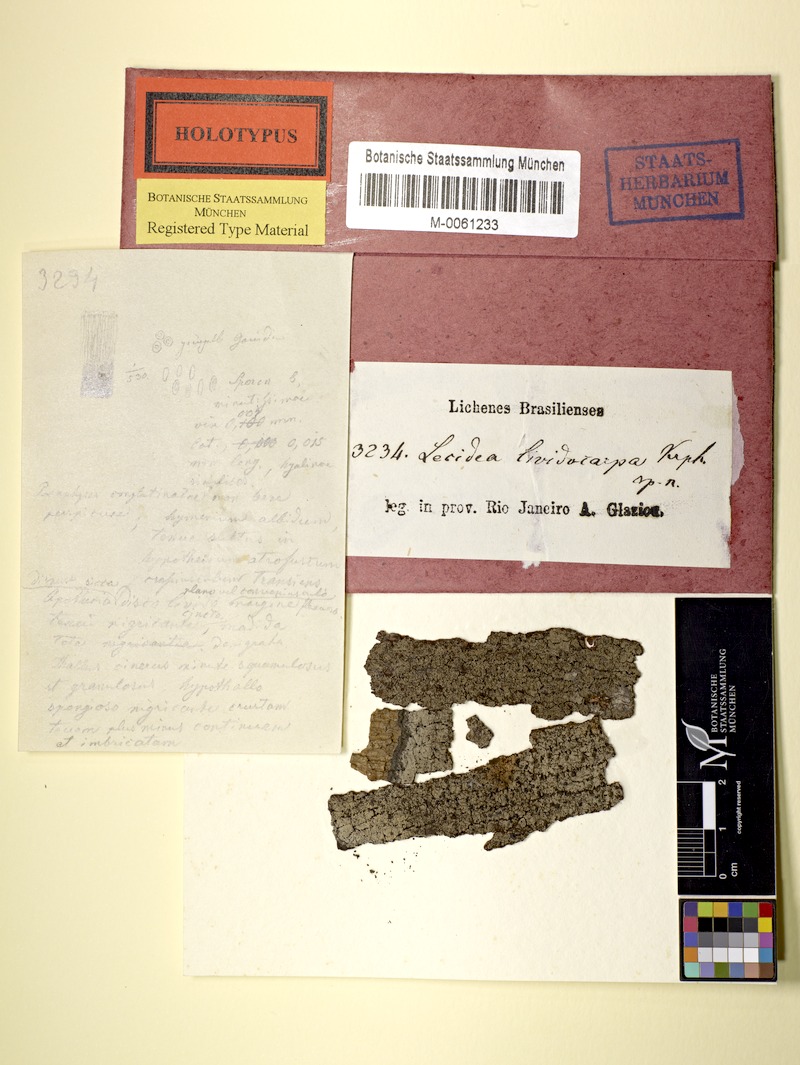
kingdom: Fungi
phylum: Ascomycota
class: Lecanoromycetes
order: Lecanorales
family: Catillariaceae
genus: Catillaria
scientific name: Catillaria
